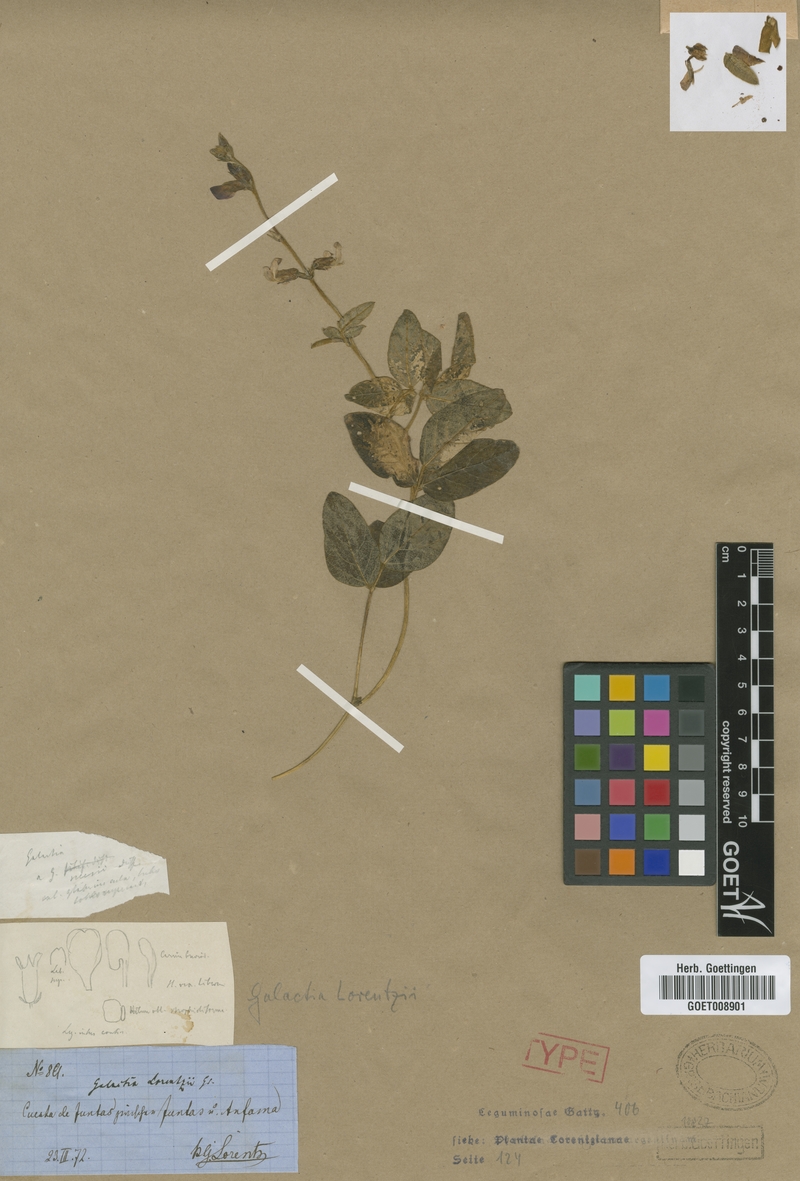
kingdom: Plantae
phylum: Tracheophyta
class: Magnoliopsida
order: Fabales
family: Fabaceae
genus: Cologania
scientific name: Cologania broussonetii
